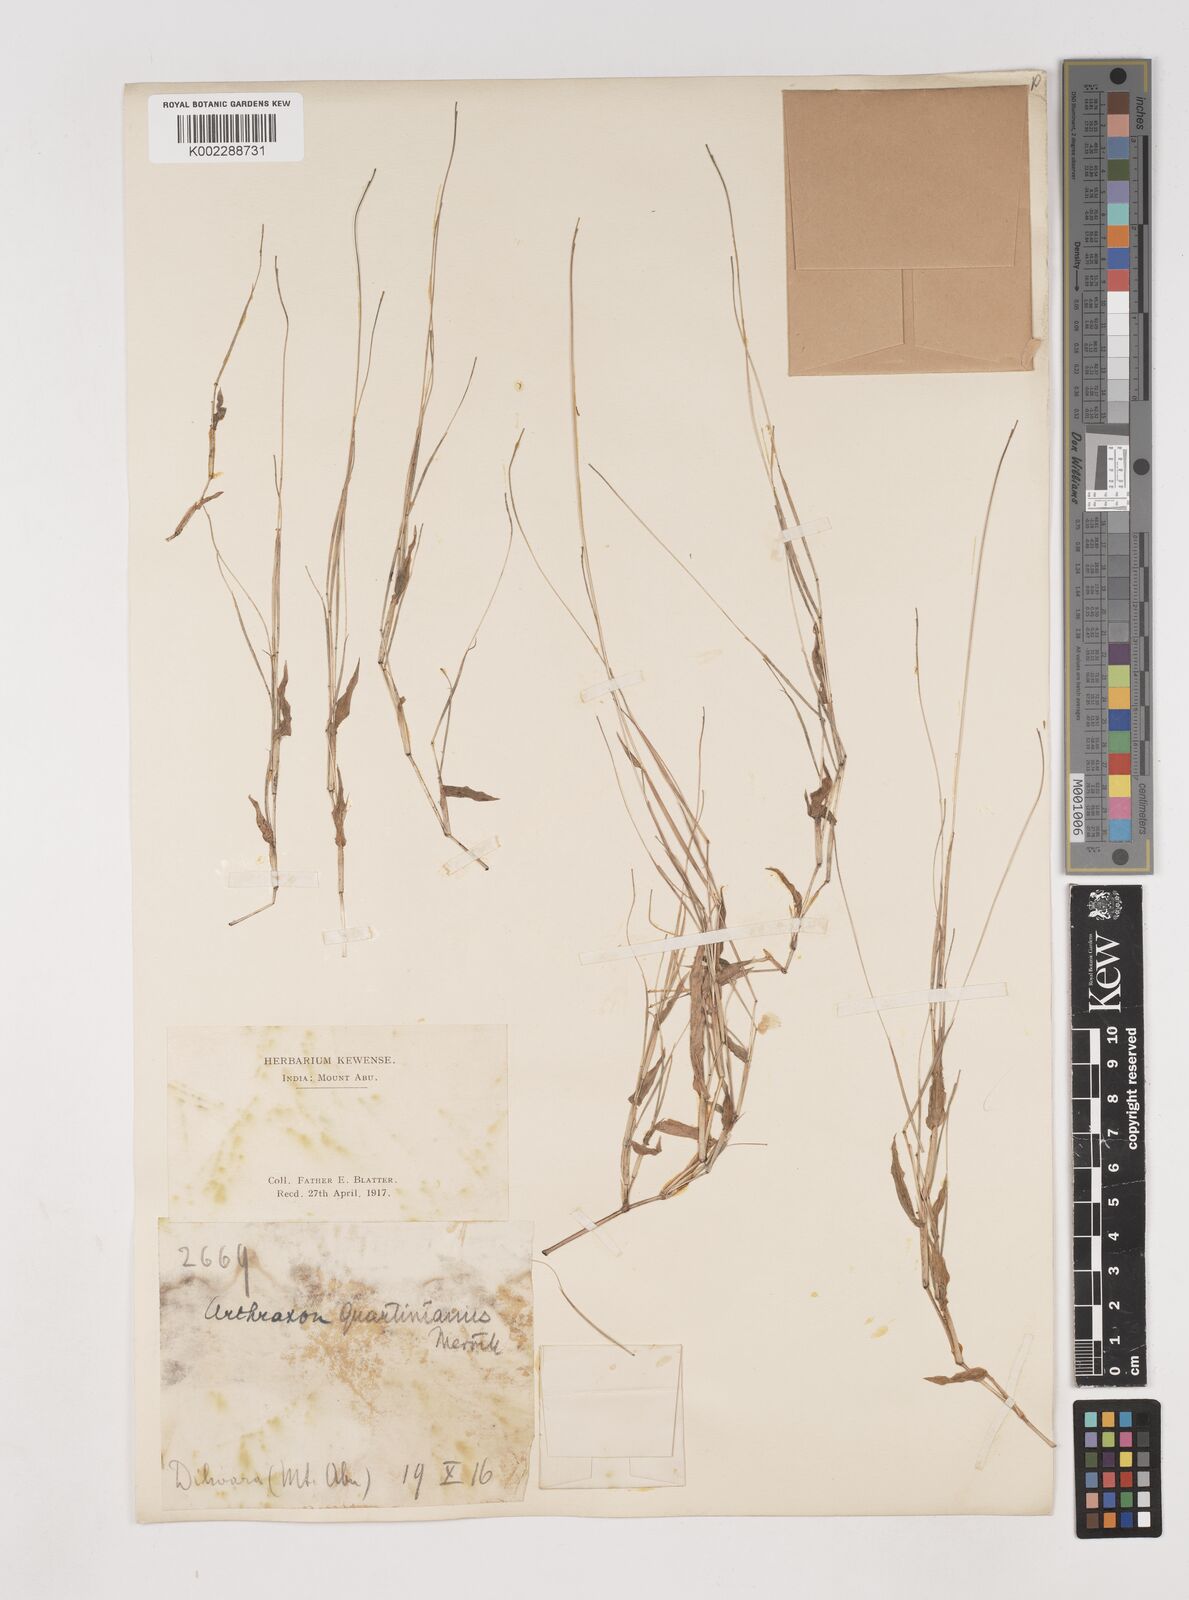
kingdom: Plantae
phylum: Tracheophyta
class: Liliopsida
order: Poales
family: Poaceae
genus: Arthraxon
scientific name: Arthraxon hispidus
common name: Small carpgrass
